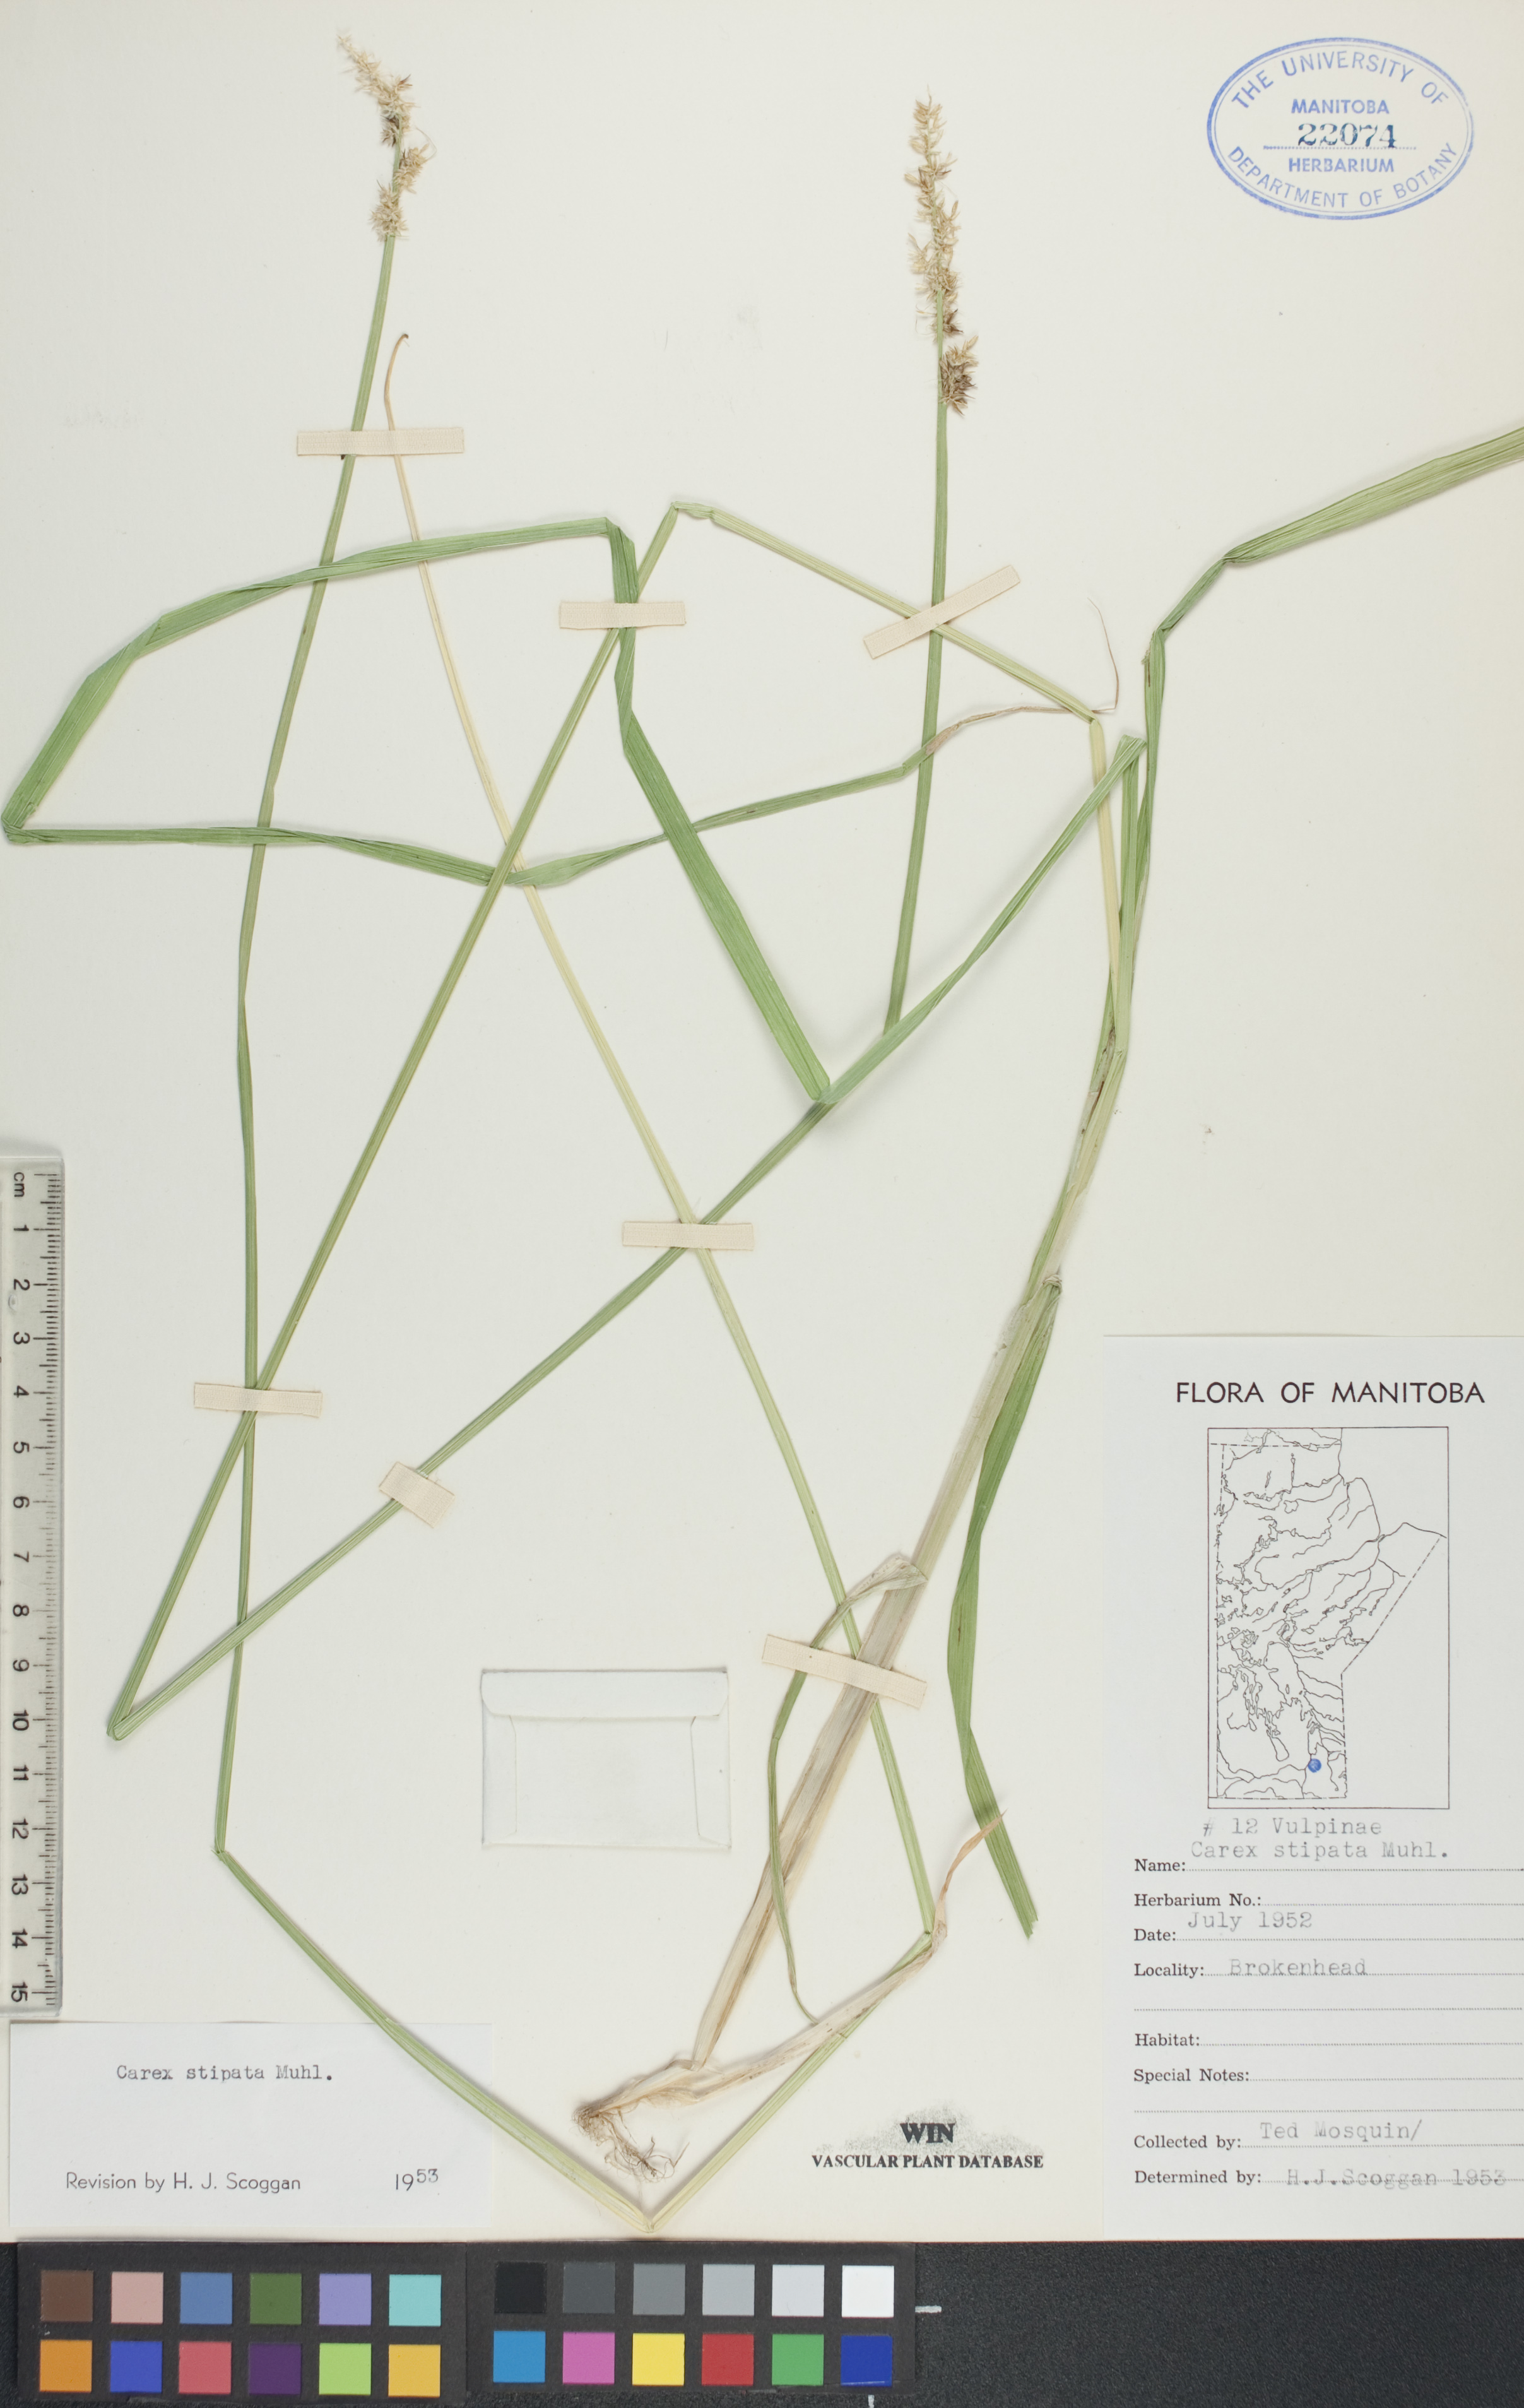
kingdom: Plantae
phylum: Tracheophyta
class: Liliopsida
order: Poales
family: Cyperaceae
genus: Carex
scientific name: Carex stipata
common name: Awl-fruited sedge
